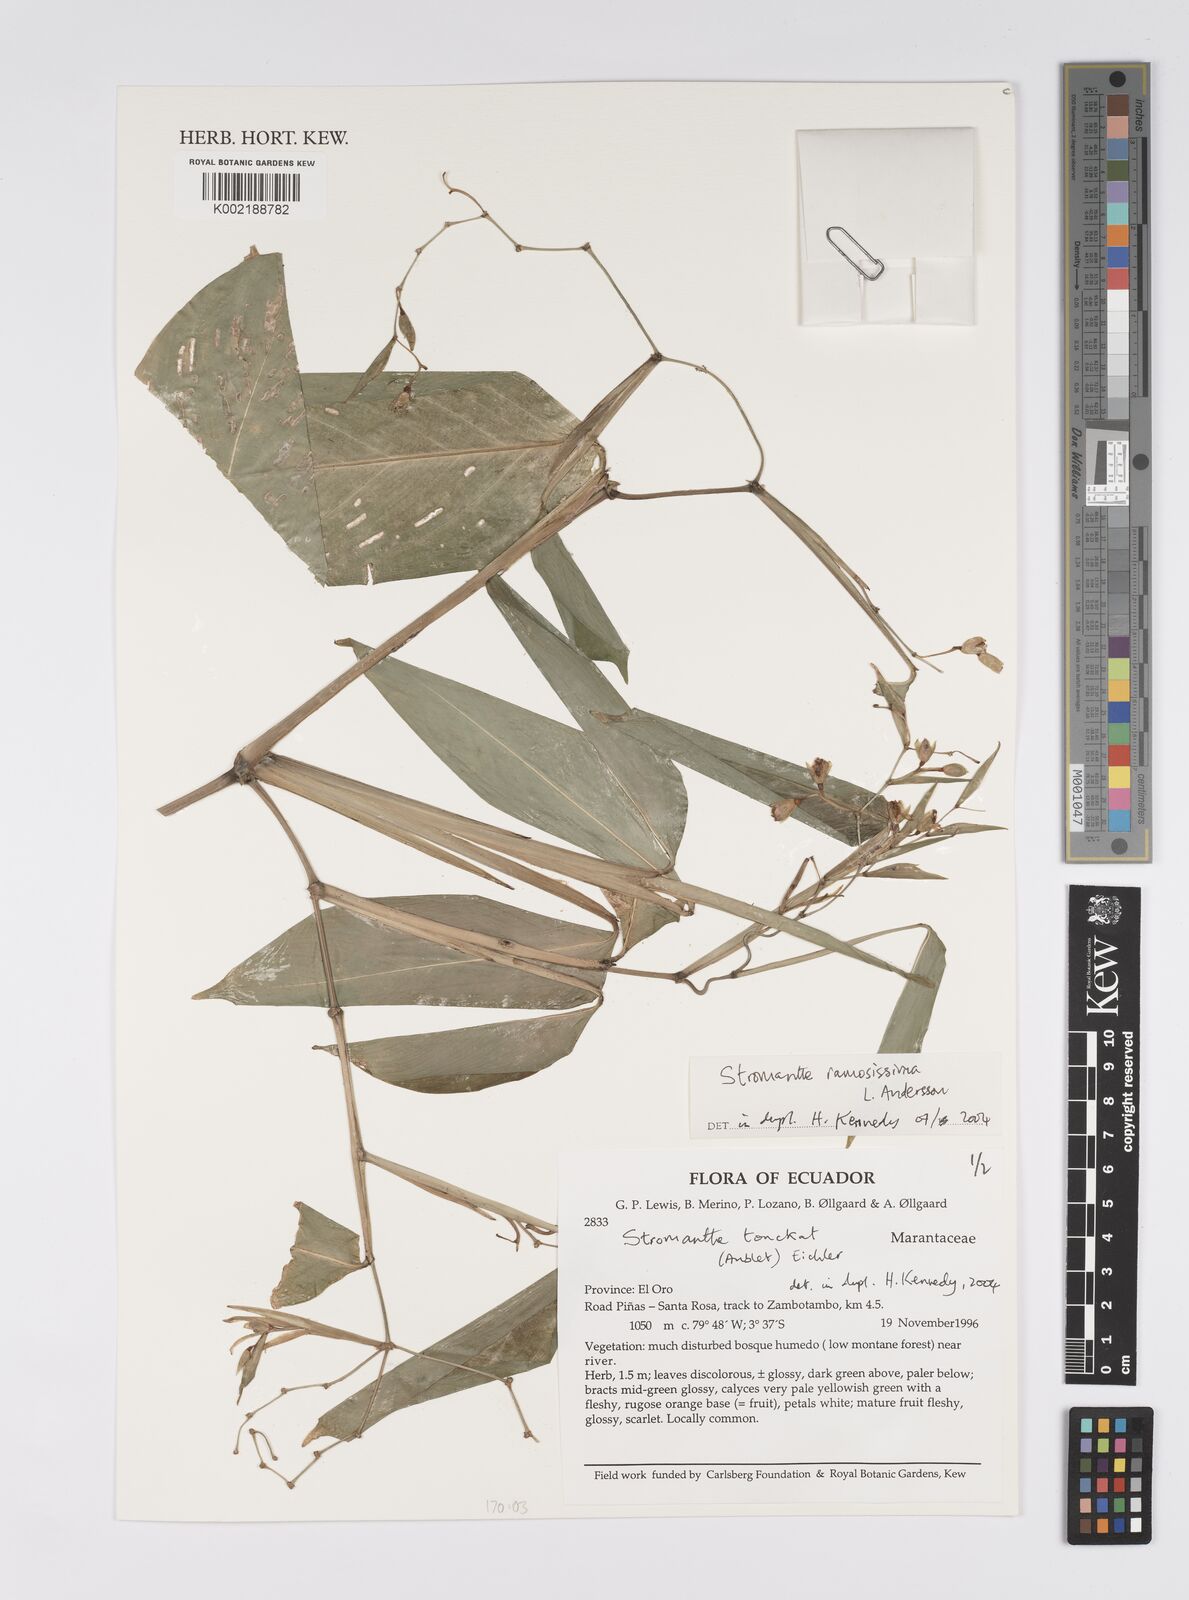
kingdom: Plantae
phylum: Tracheophyta
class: Liliopsida
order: Zingiberales
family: Marantaceae
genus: Stromanthe
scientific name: Stromanthe ramosissima
